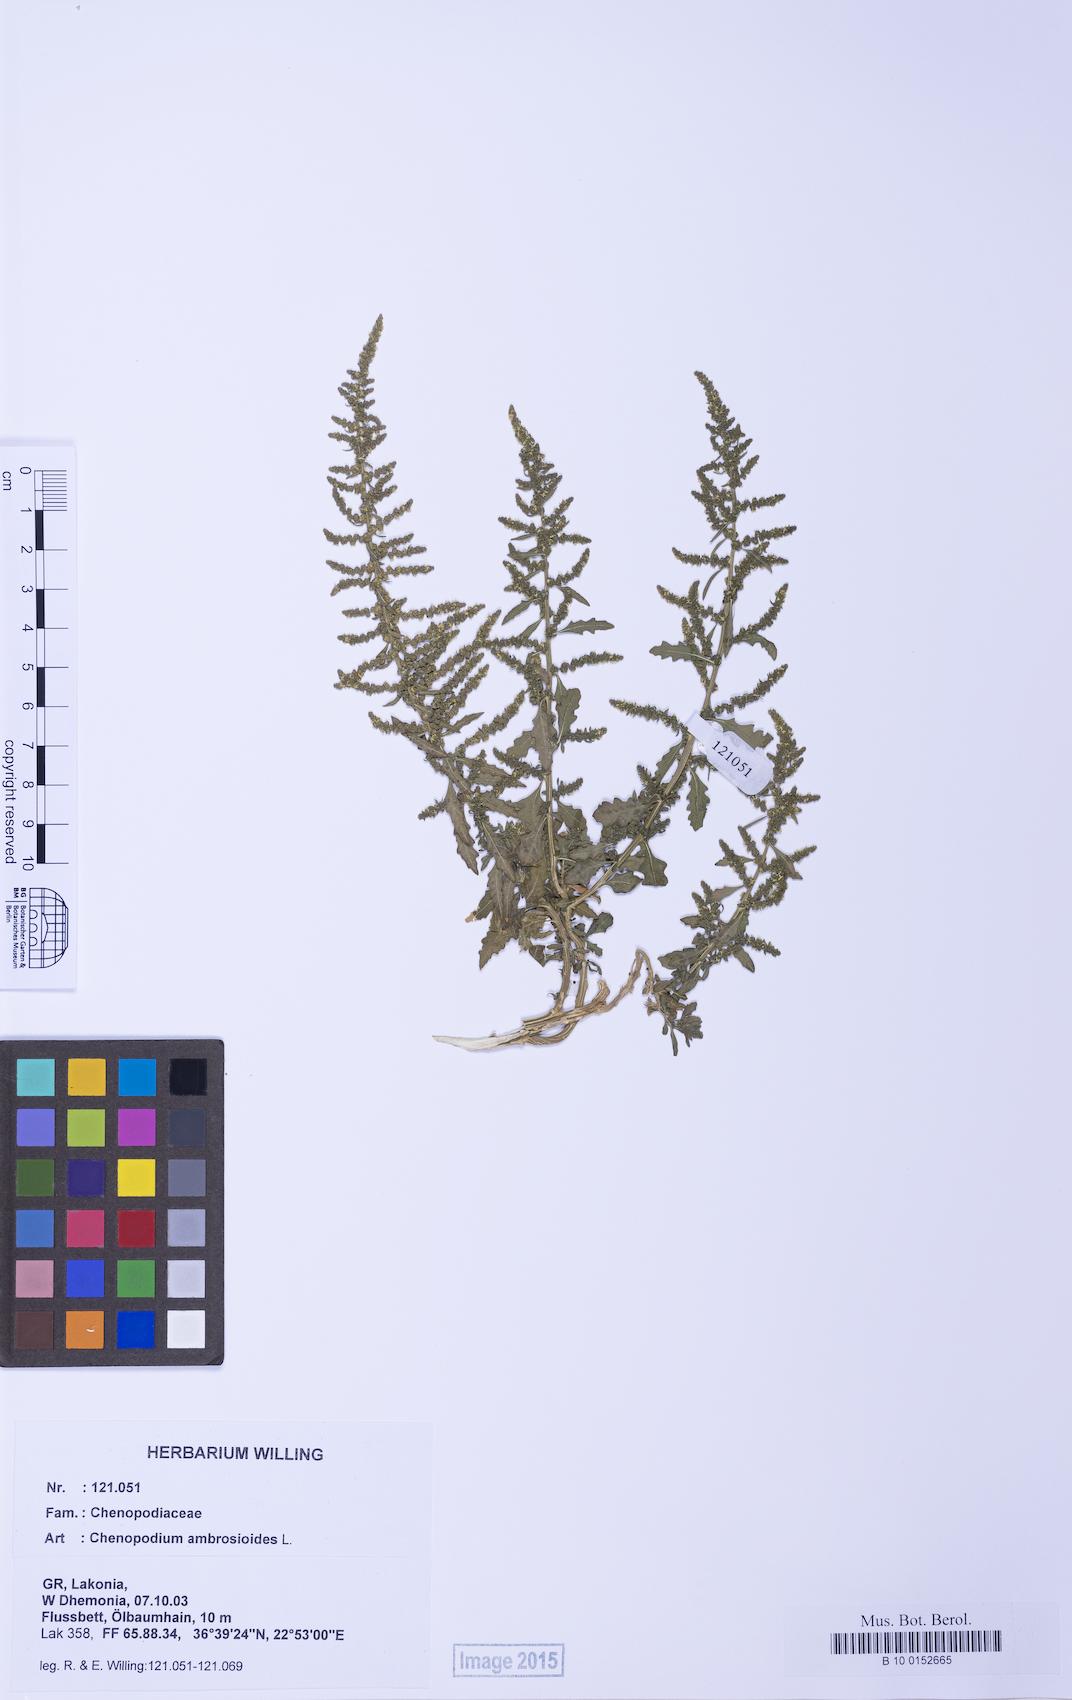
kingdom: Plantae
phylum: Tracheophyta
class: Magnoliopsida
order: Caryophyllales
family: Amaranthaceae
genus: Dysphania
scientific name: Dysphania ambrosioides
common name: Wormseed
